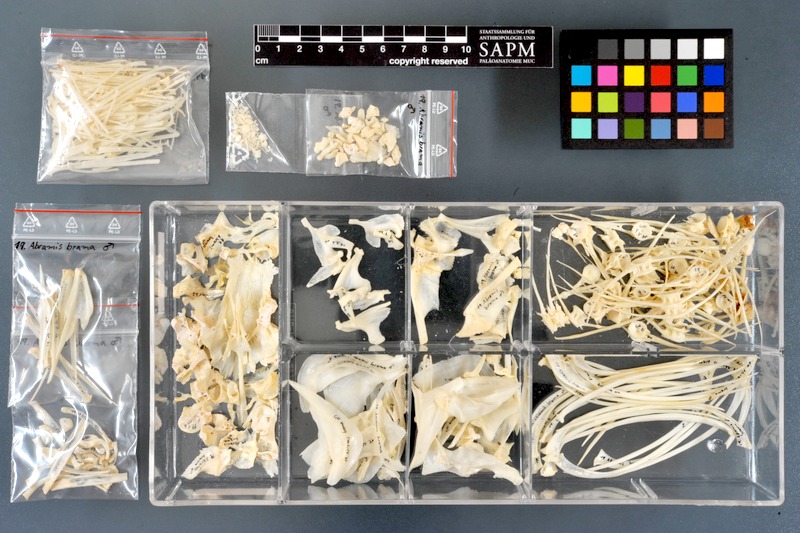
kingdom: Animalia
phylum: Chordata
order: Cypriniformes
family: Cyprinidae
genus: Abramis
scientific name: Abramis brama
